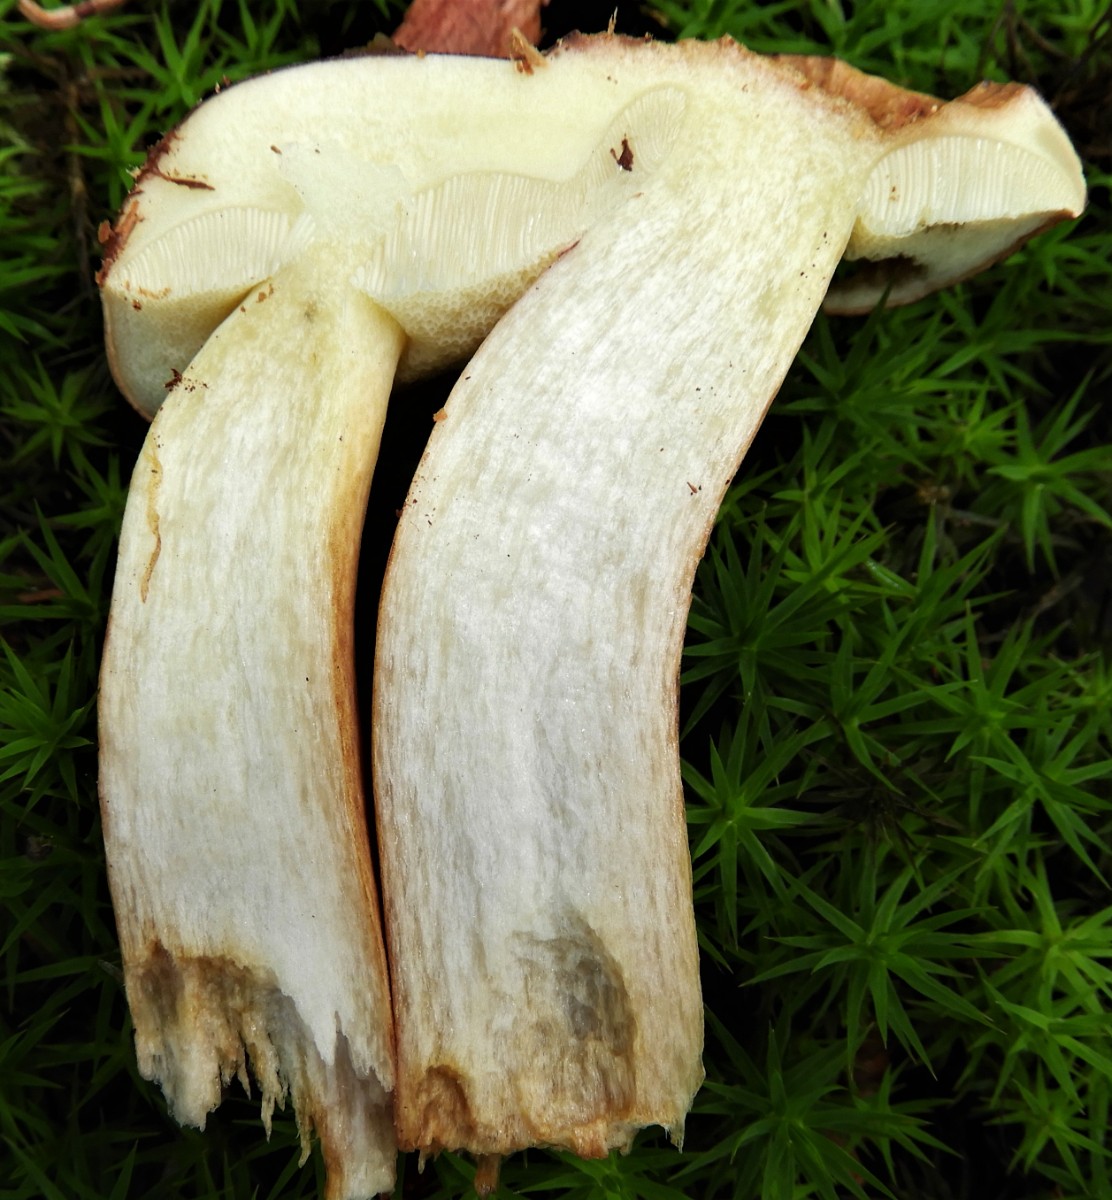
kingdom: Fungi
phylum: Basidiomycota
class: Agaricomycetes
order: Boletales
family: Boletaceae
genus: Imleria
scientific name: Imleria badia
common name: brunstokket rørhat
